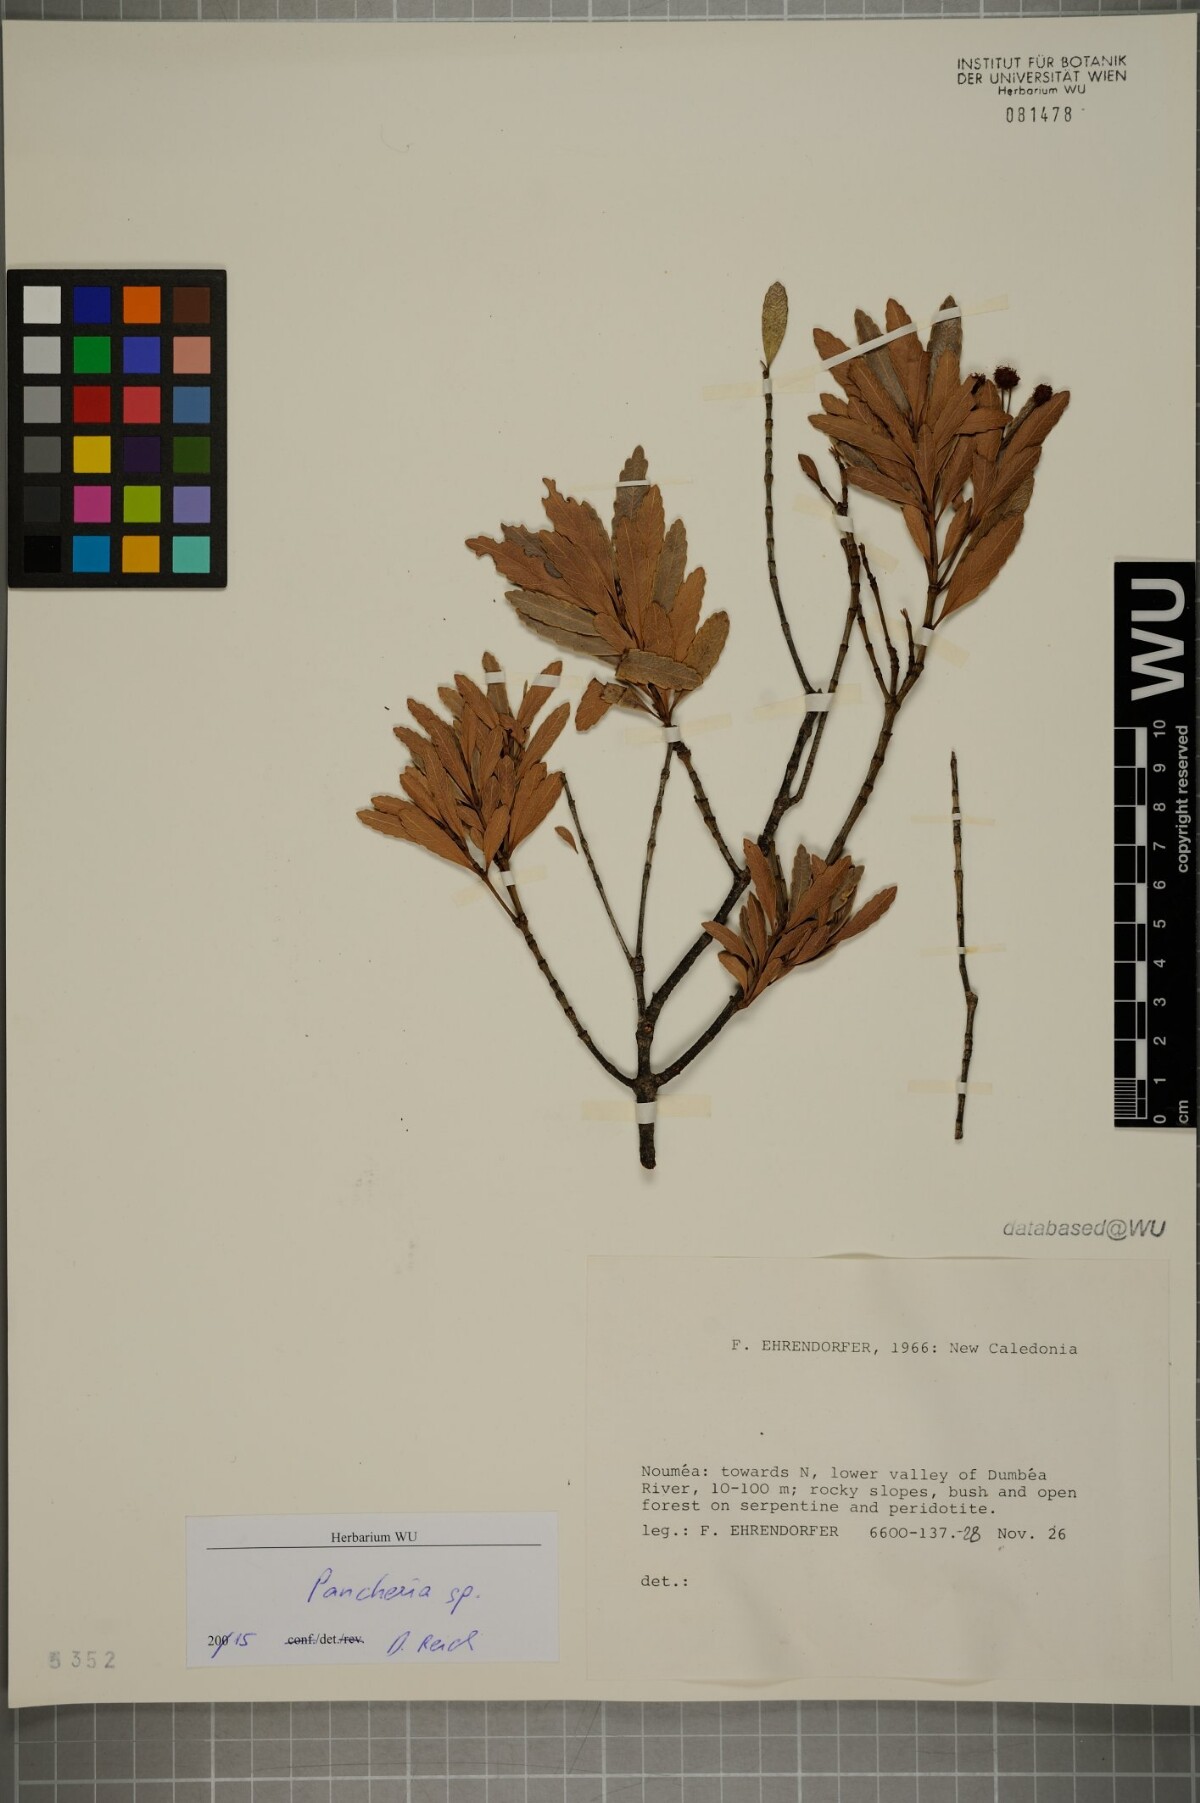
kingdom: Plantae
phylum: Tracheophyta
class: Magnoliopsida
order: Oxalidales
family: Cunoniaceae
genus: Pancheria
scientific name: Pancheria
